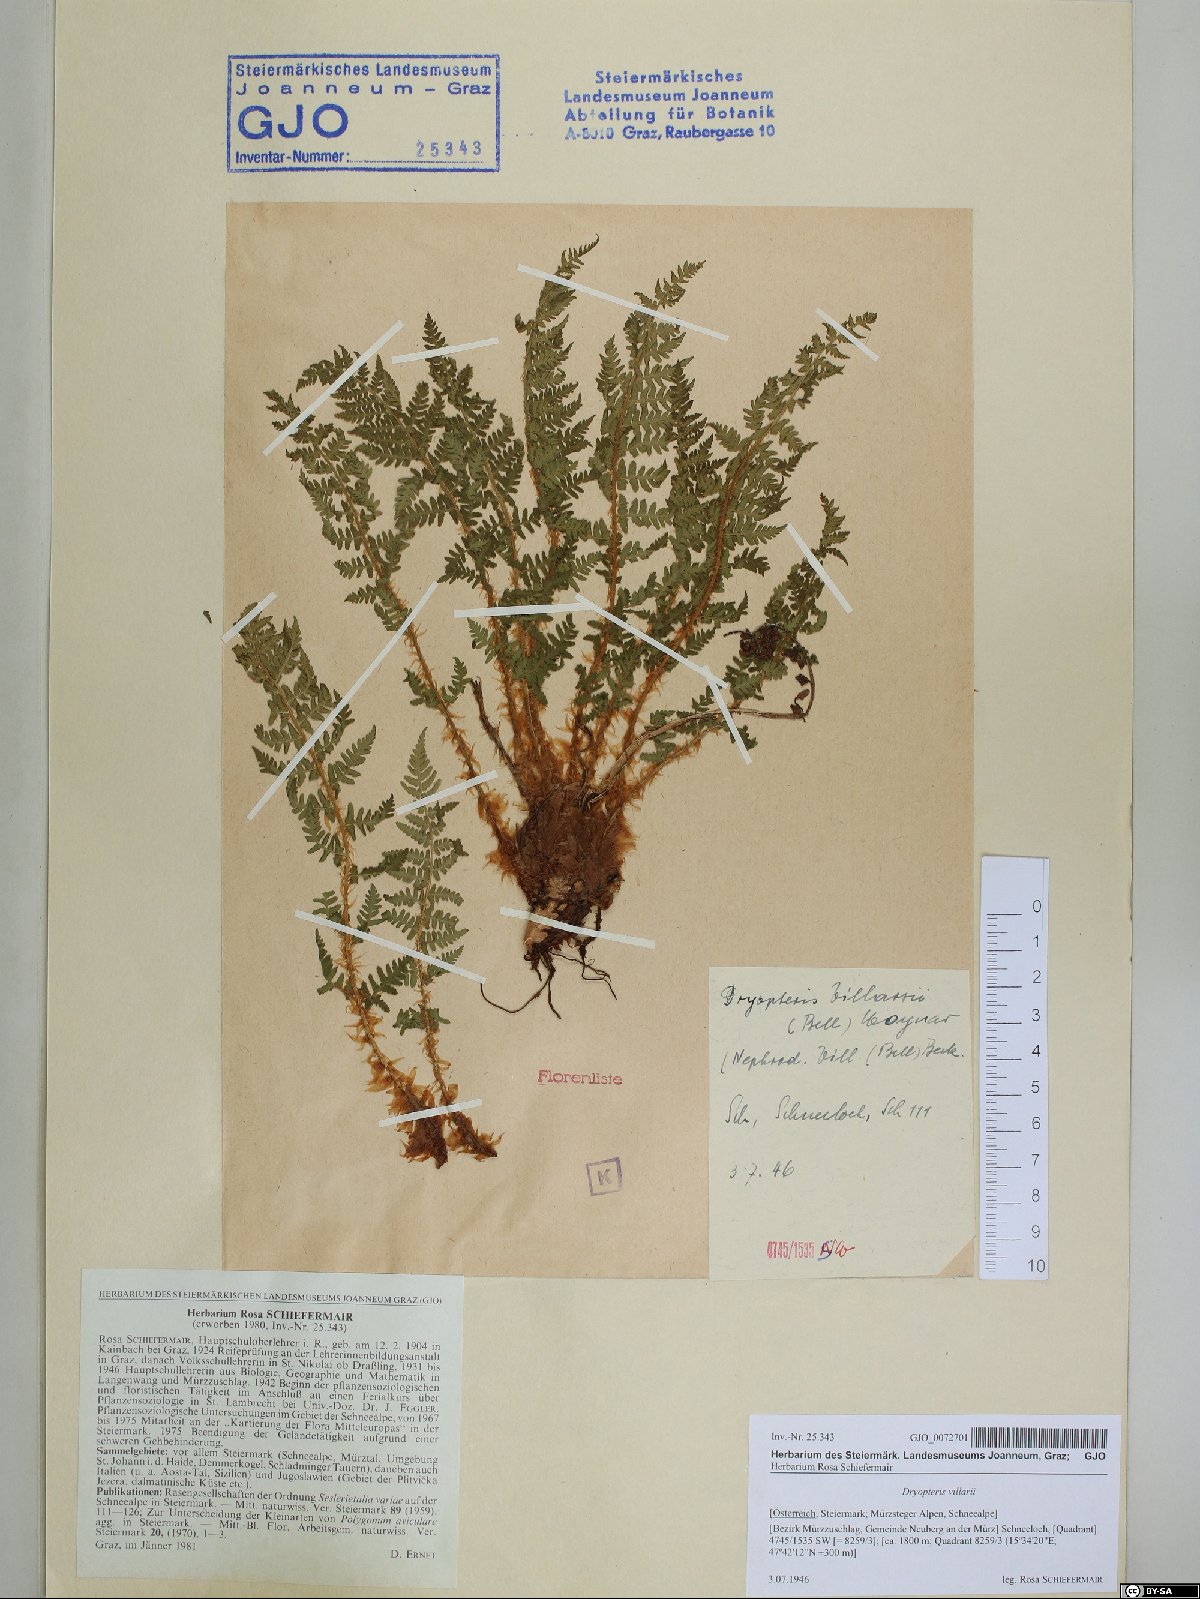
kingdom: Plantae
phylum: Tracheophyta
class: Polypodiopsida
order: Polypodiales
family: Dryopteridaceae
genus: Dryopteris
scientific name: Dryopteris villarii
